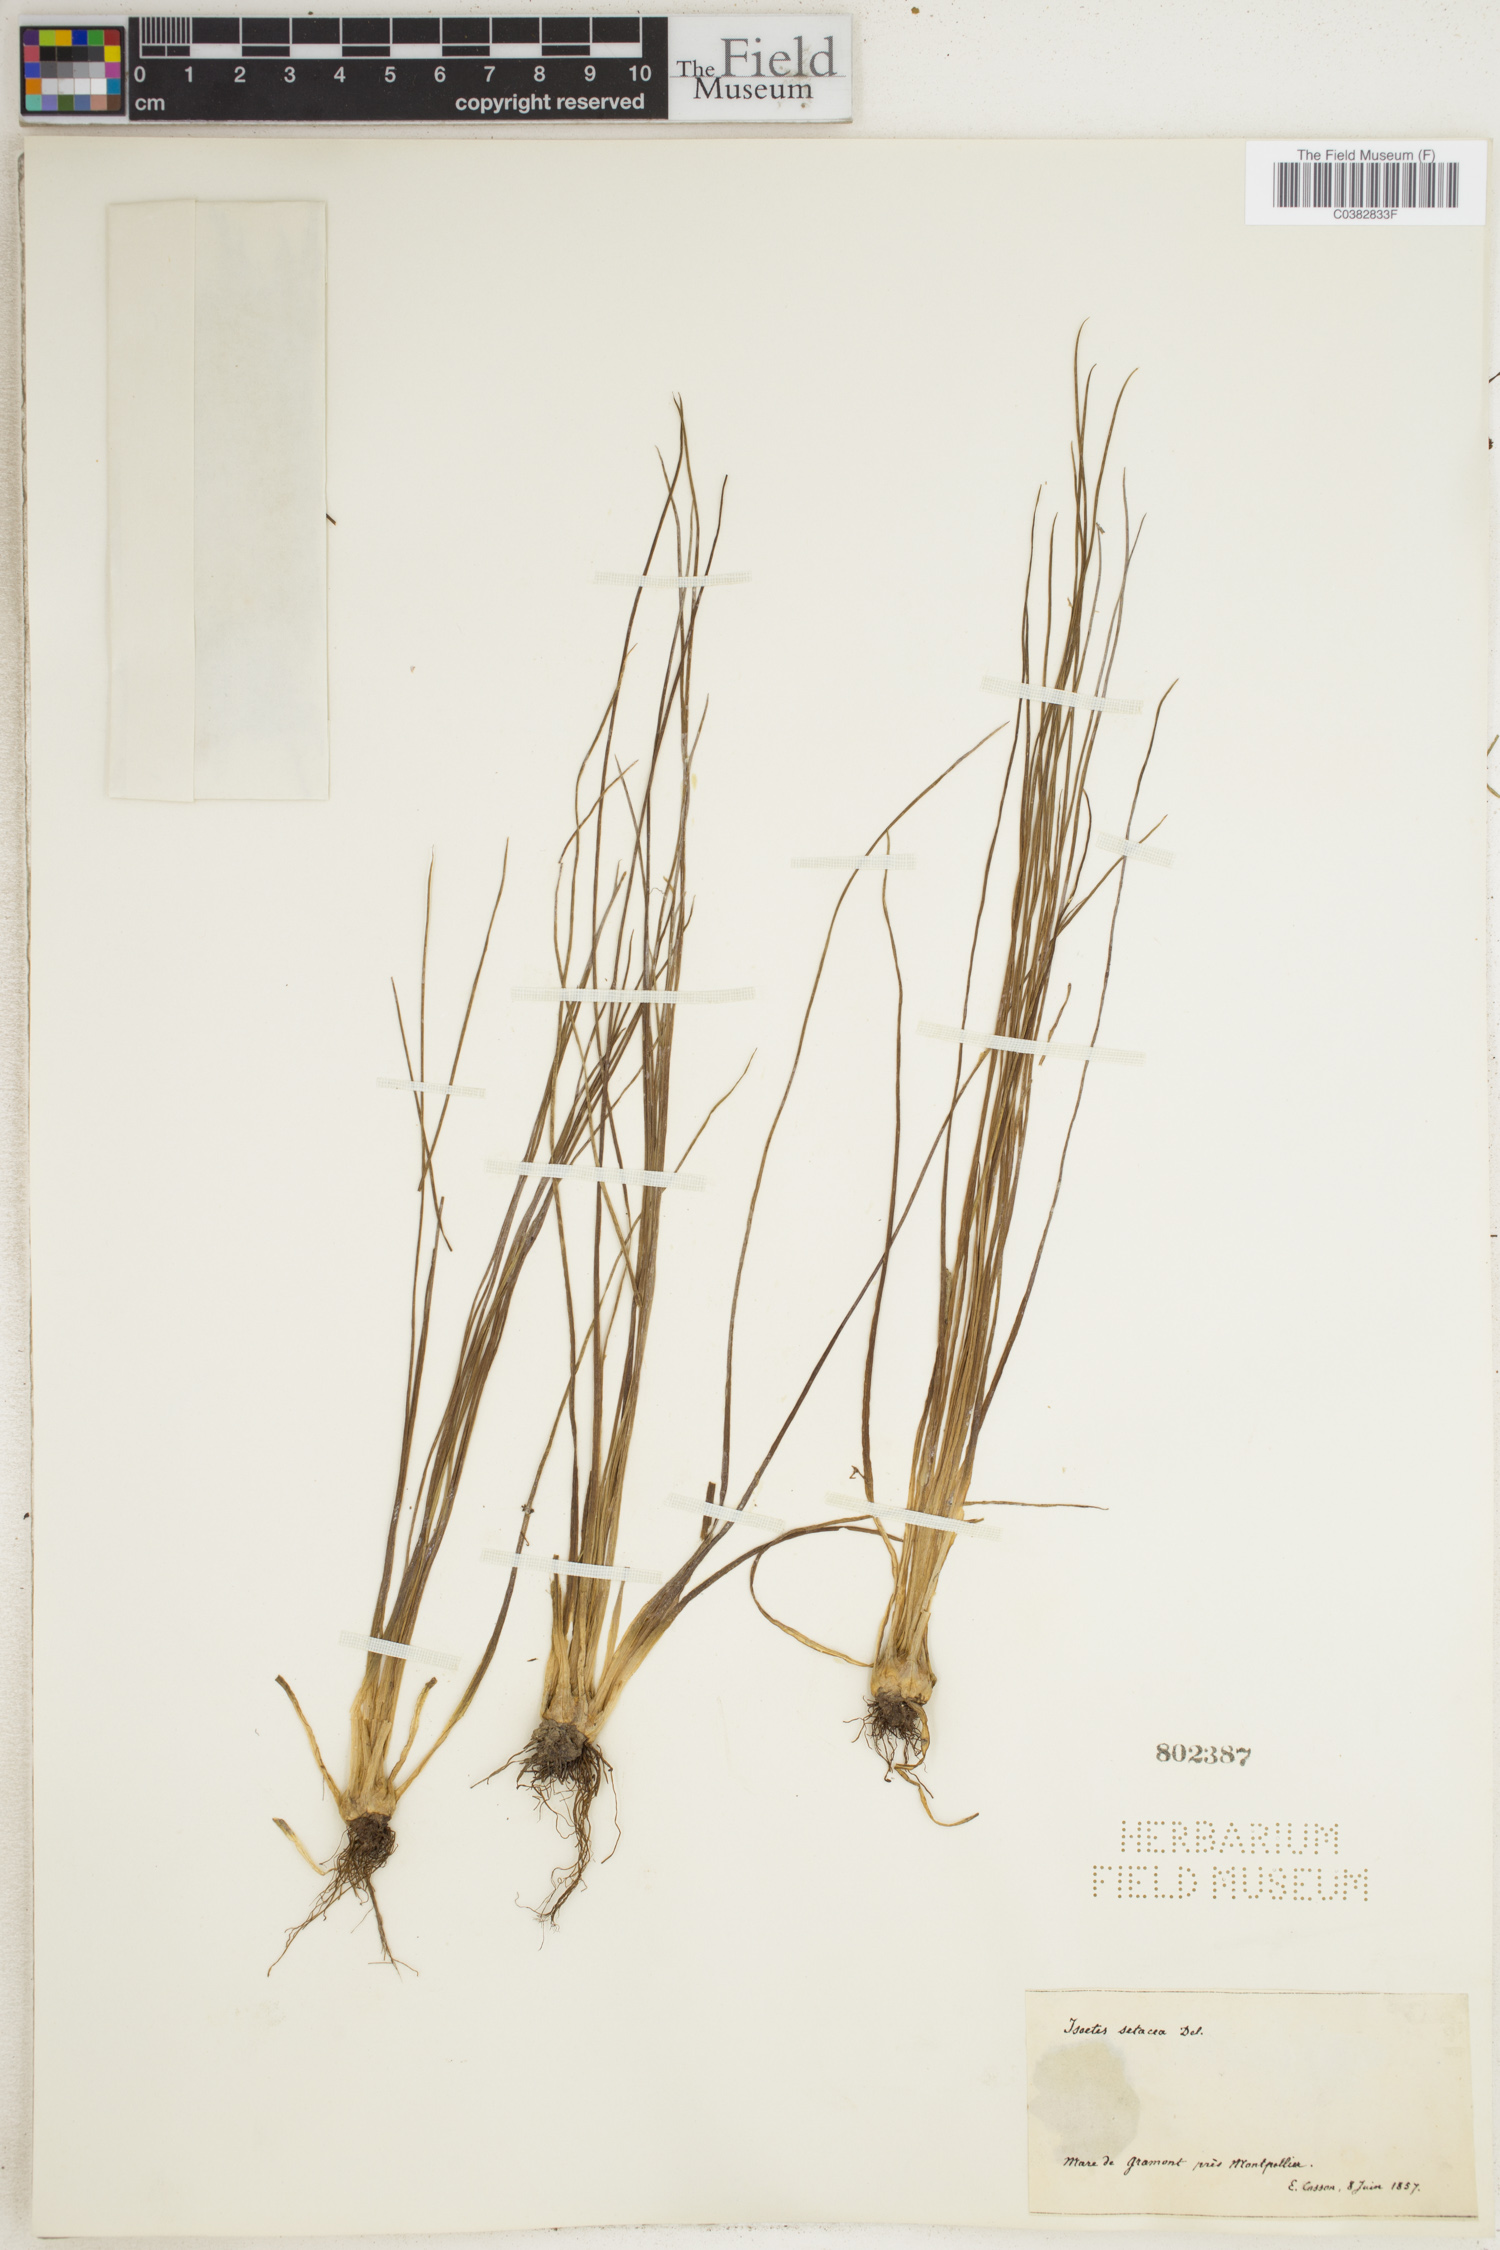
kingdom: Plantae
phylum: Tracheophyta
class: Lycopodiopsida
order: Isoetales
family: Isoetaceae
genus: Isoetes
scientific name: Isoetes lacustris
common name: Common quillwort
